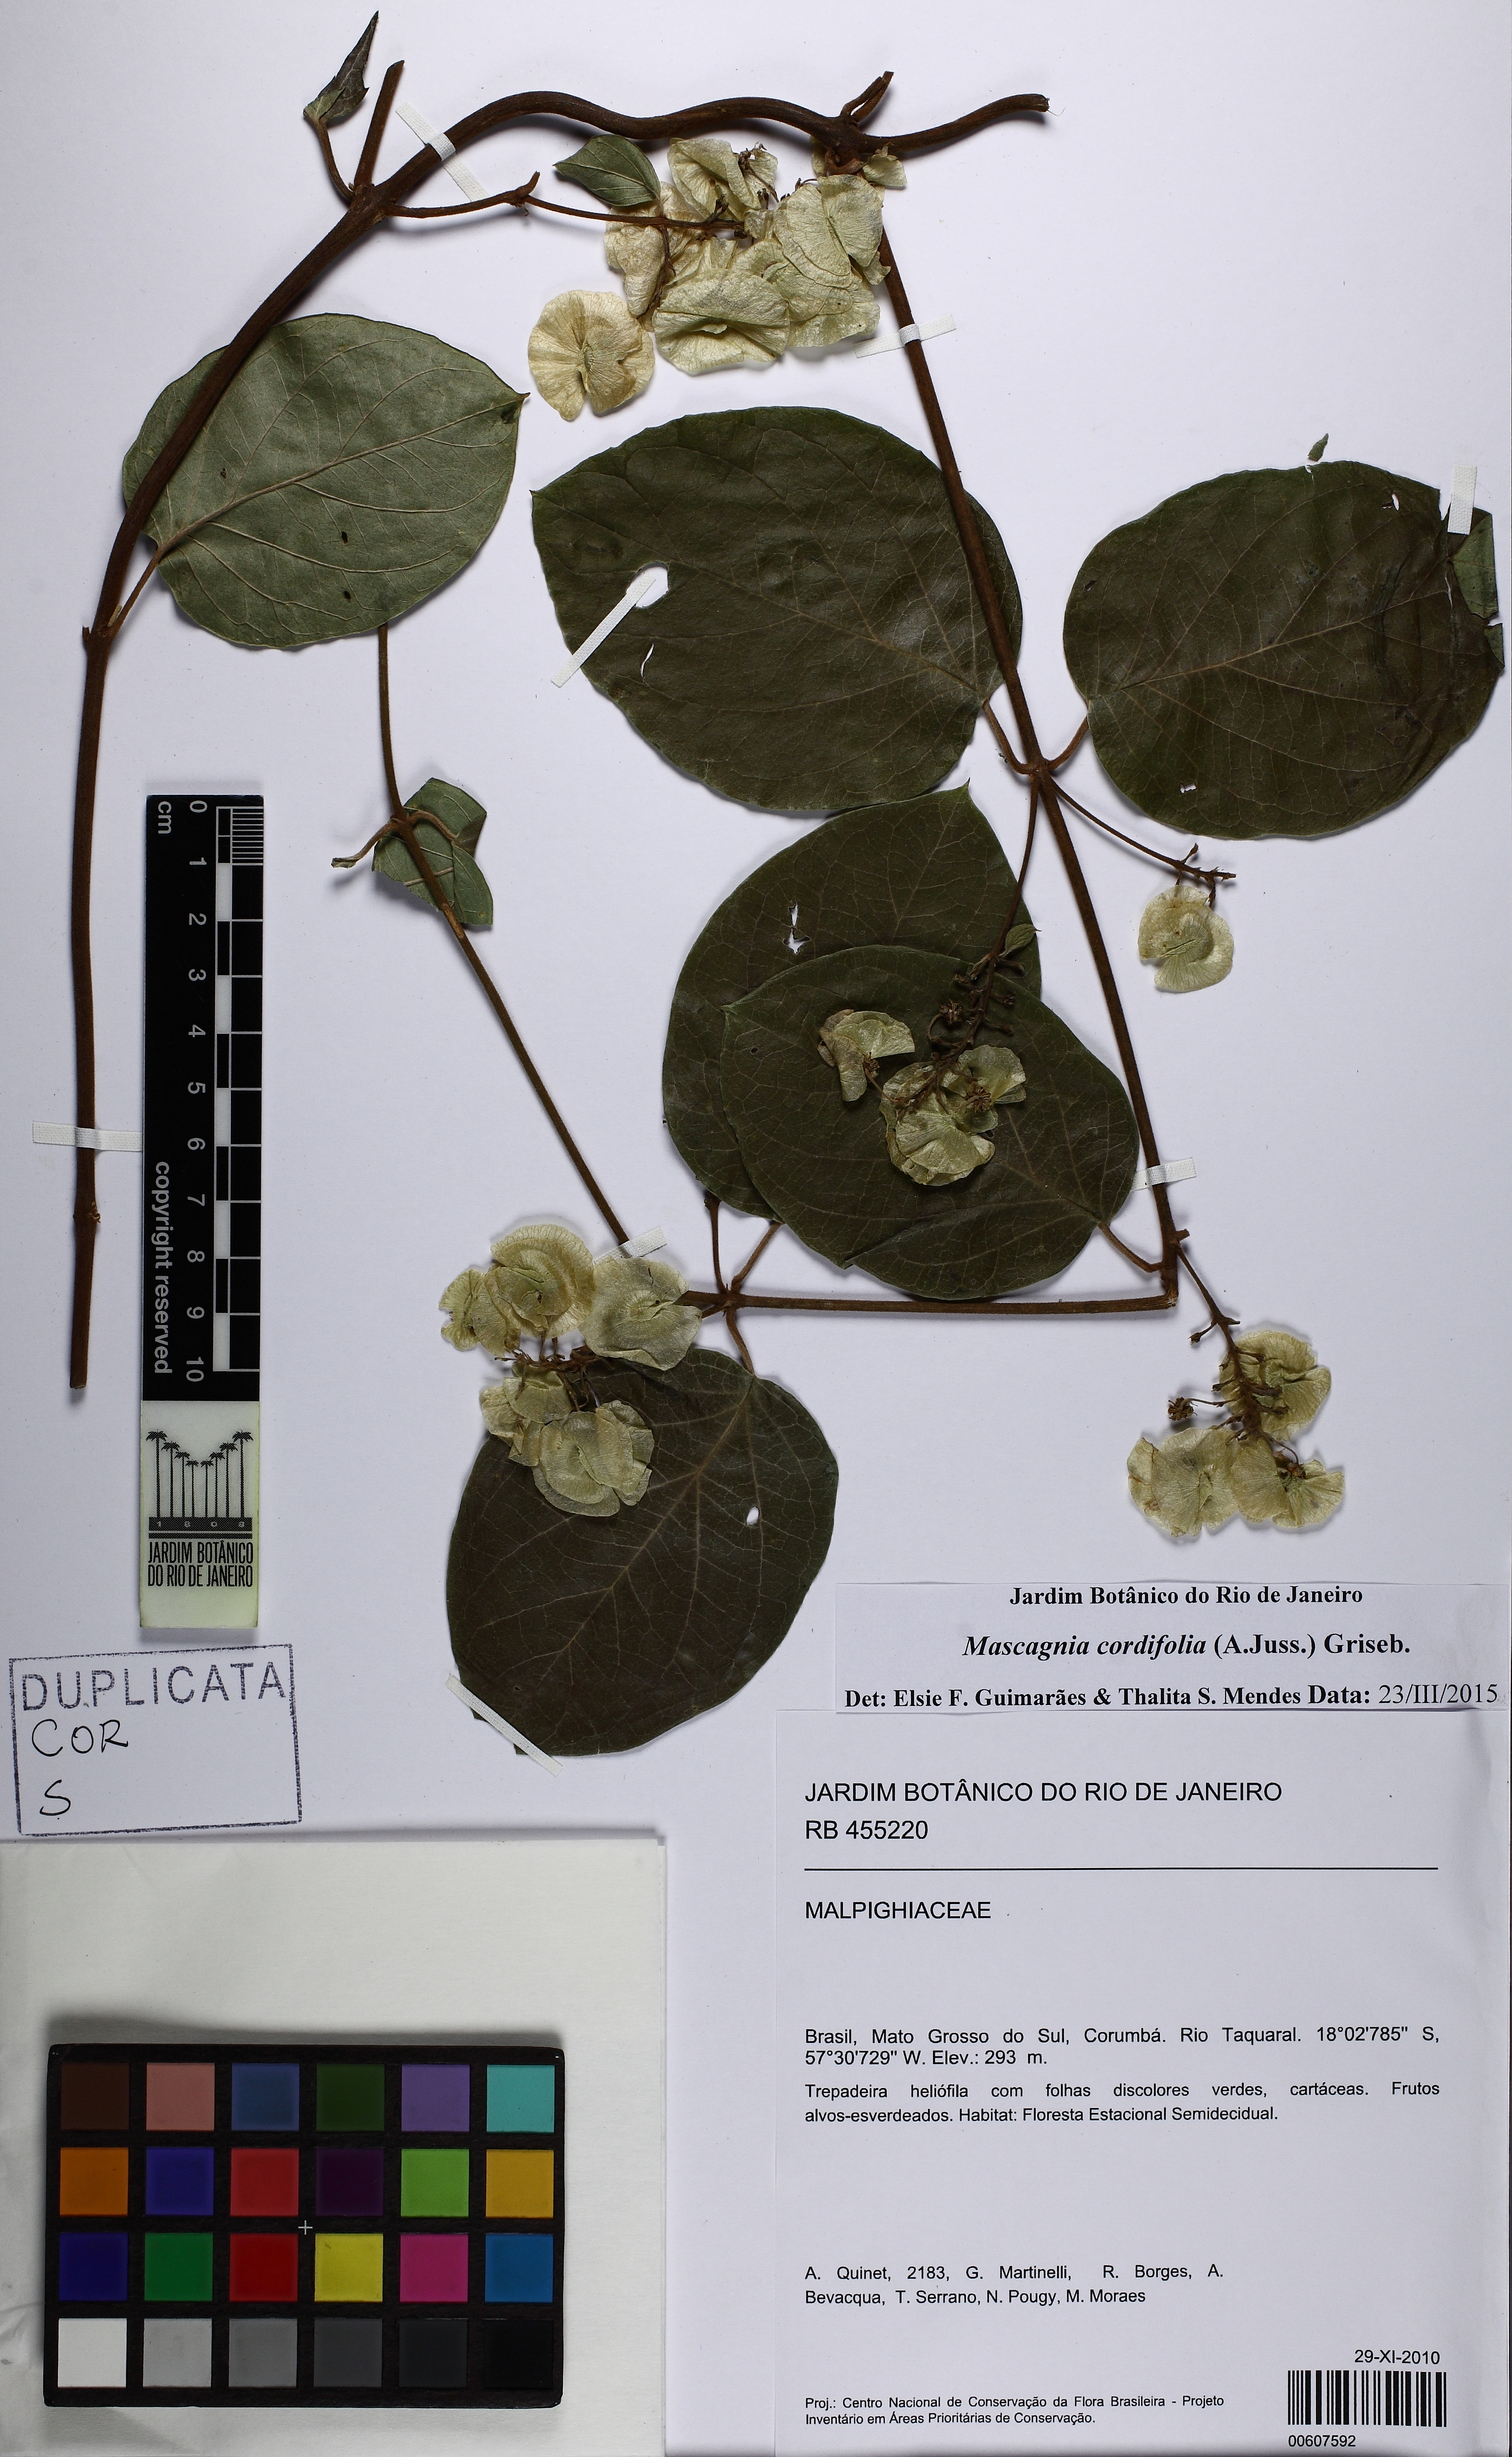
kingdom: Plantae
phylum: Tracheophyta
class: Magnoliopsida
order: Malpighiales
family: Malpighiaceae
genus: Mascagnia
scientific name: Mascagnia cordifolia
